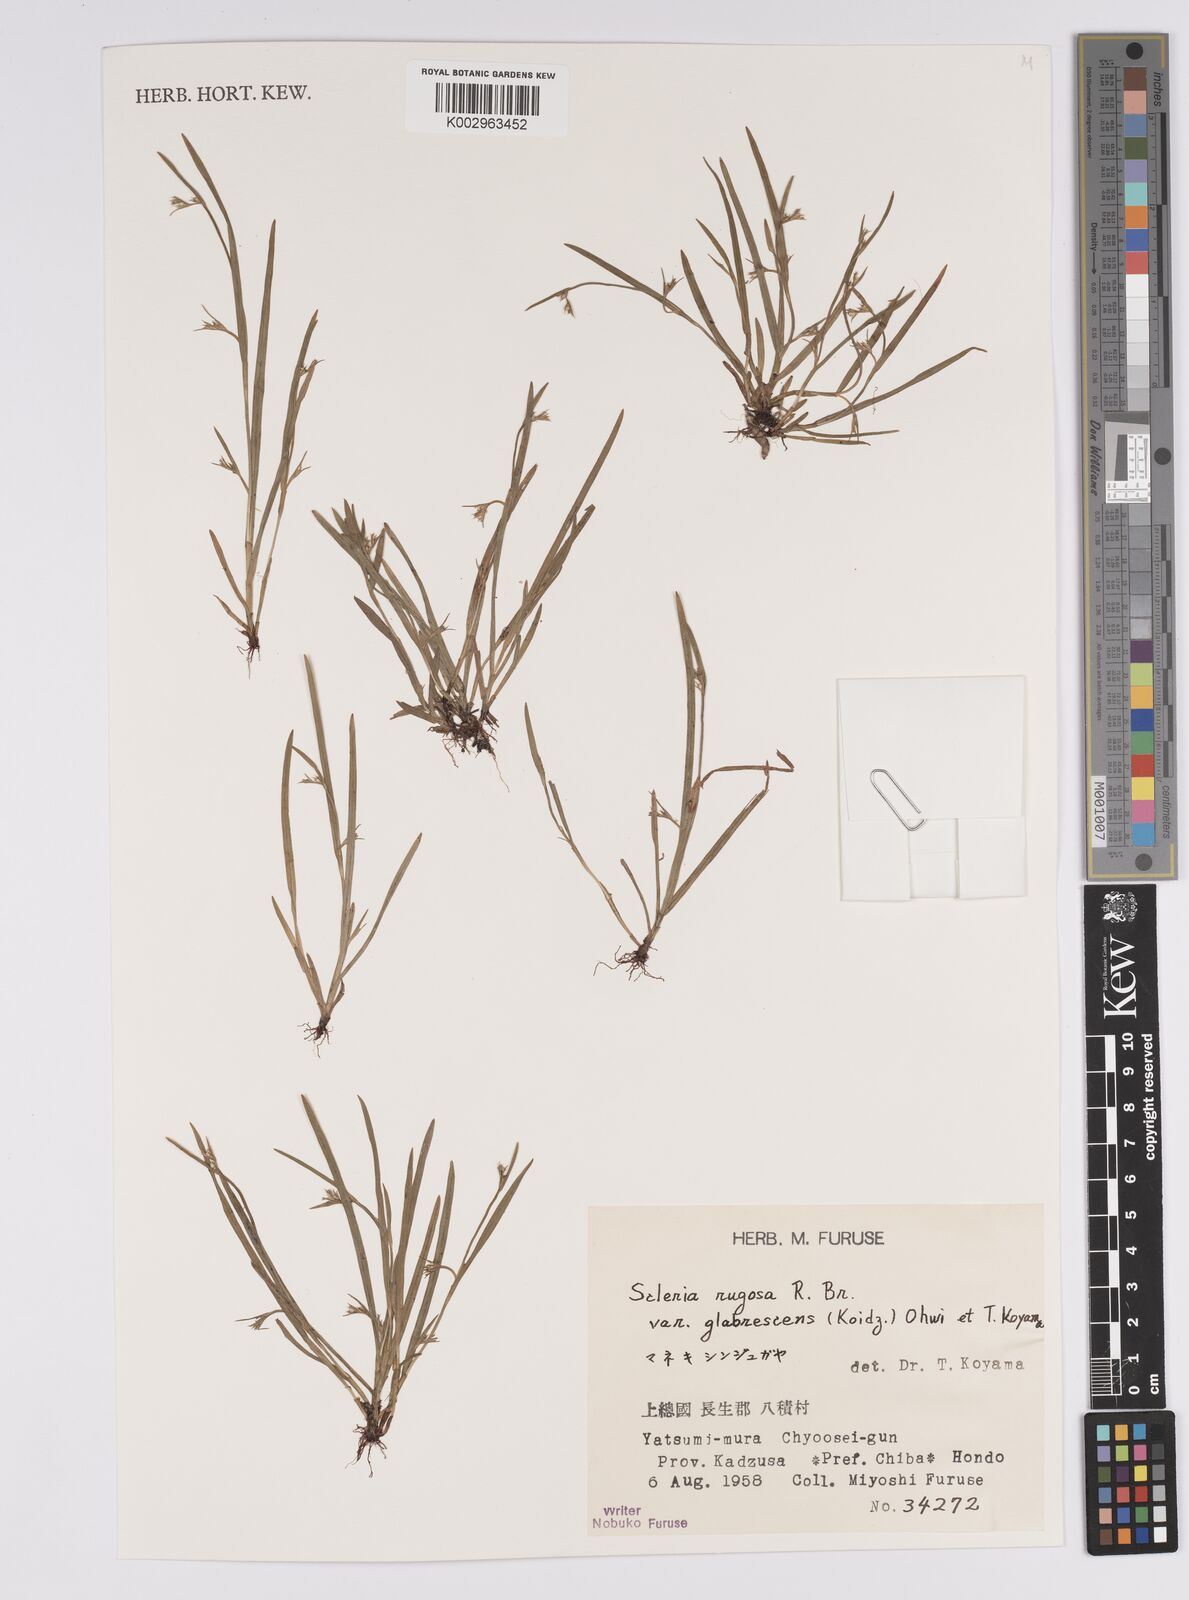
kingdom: Plantae
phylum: Tracheophyta
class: Liliopsida
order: Poales
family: Cyperaceae
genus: Scleria
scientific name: Scleria rugosa
